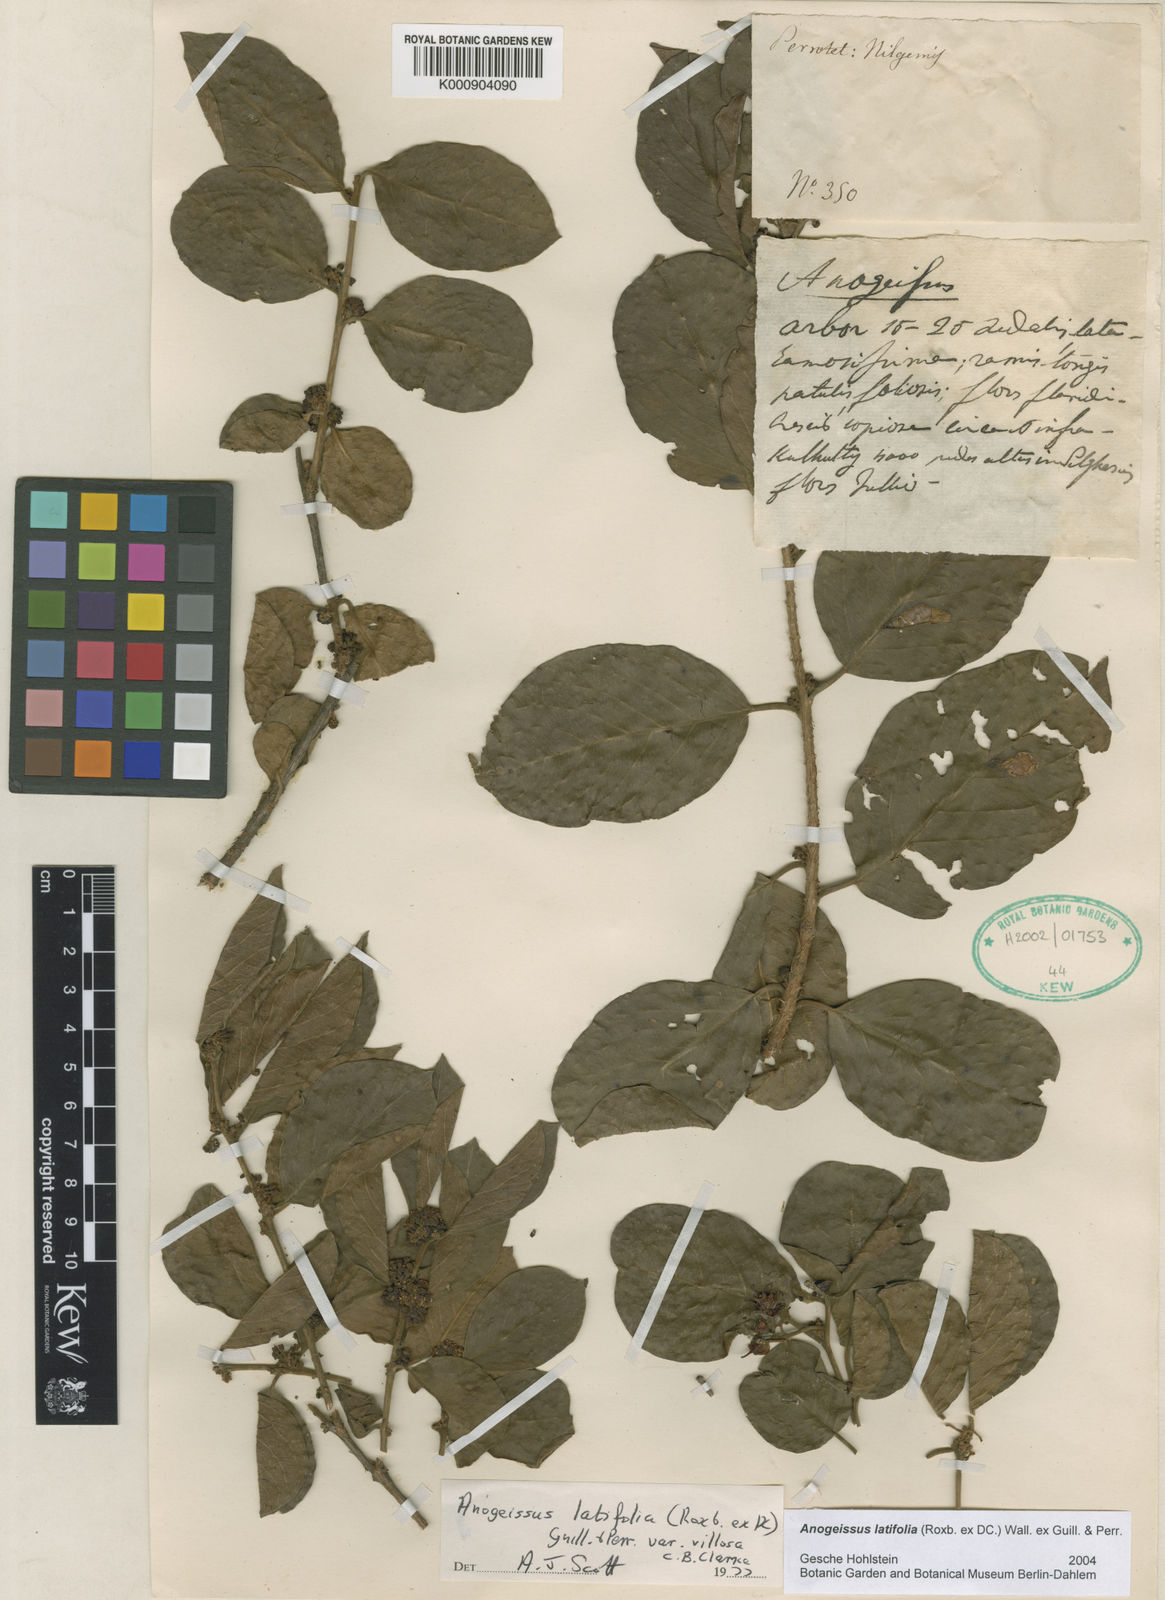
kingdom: Plantae
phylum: Tracheophyta
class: Magnoliopsida
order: Myrtales
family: Combretaceae
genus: Terminalia
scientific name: Terminalia anogeissiana
